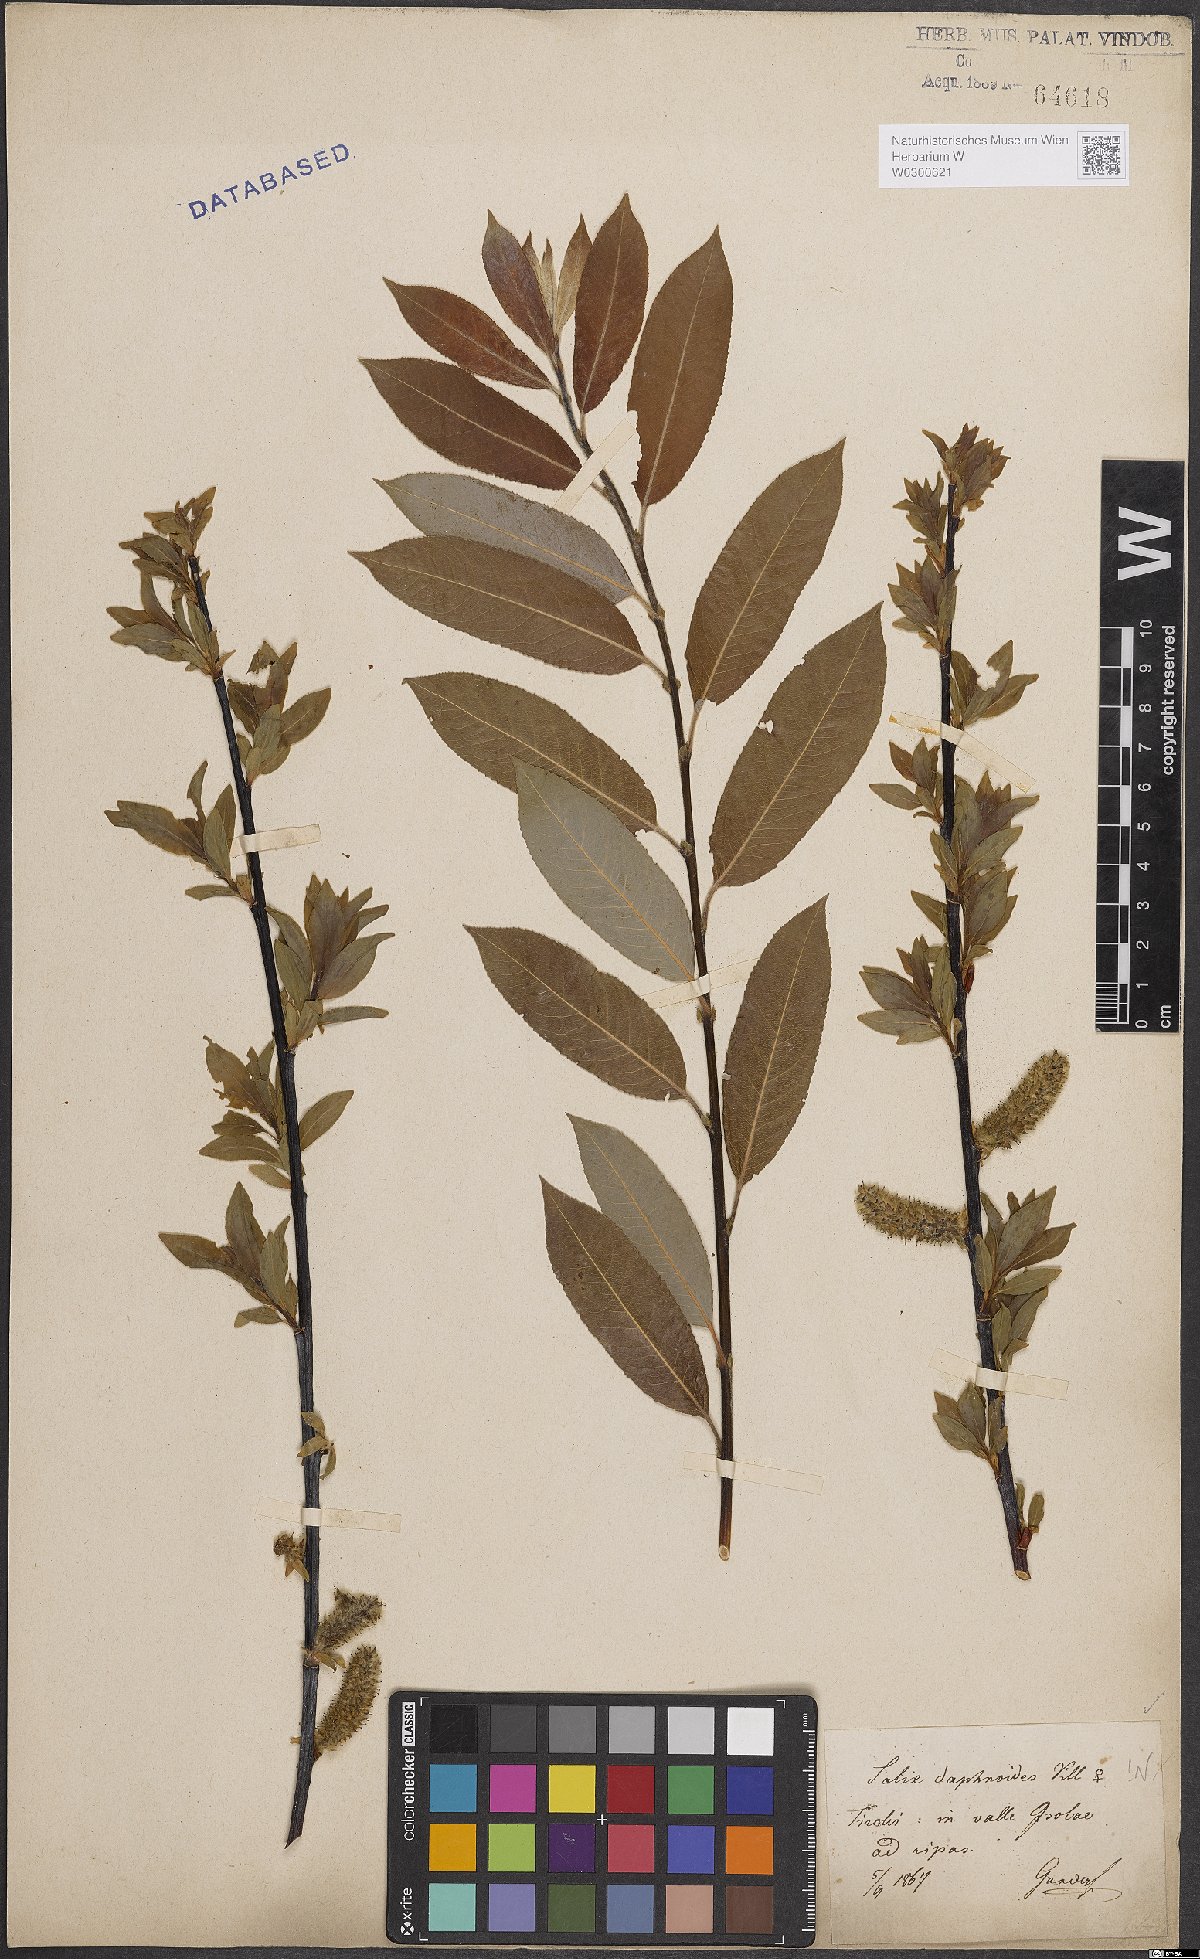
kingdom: Plantae
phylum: Tracheophyta
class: Magnoliopsida
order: Malpighiales
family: Salicaceae
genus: Salix
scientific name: Salix daphnoides
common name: European violet-willow
